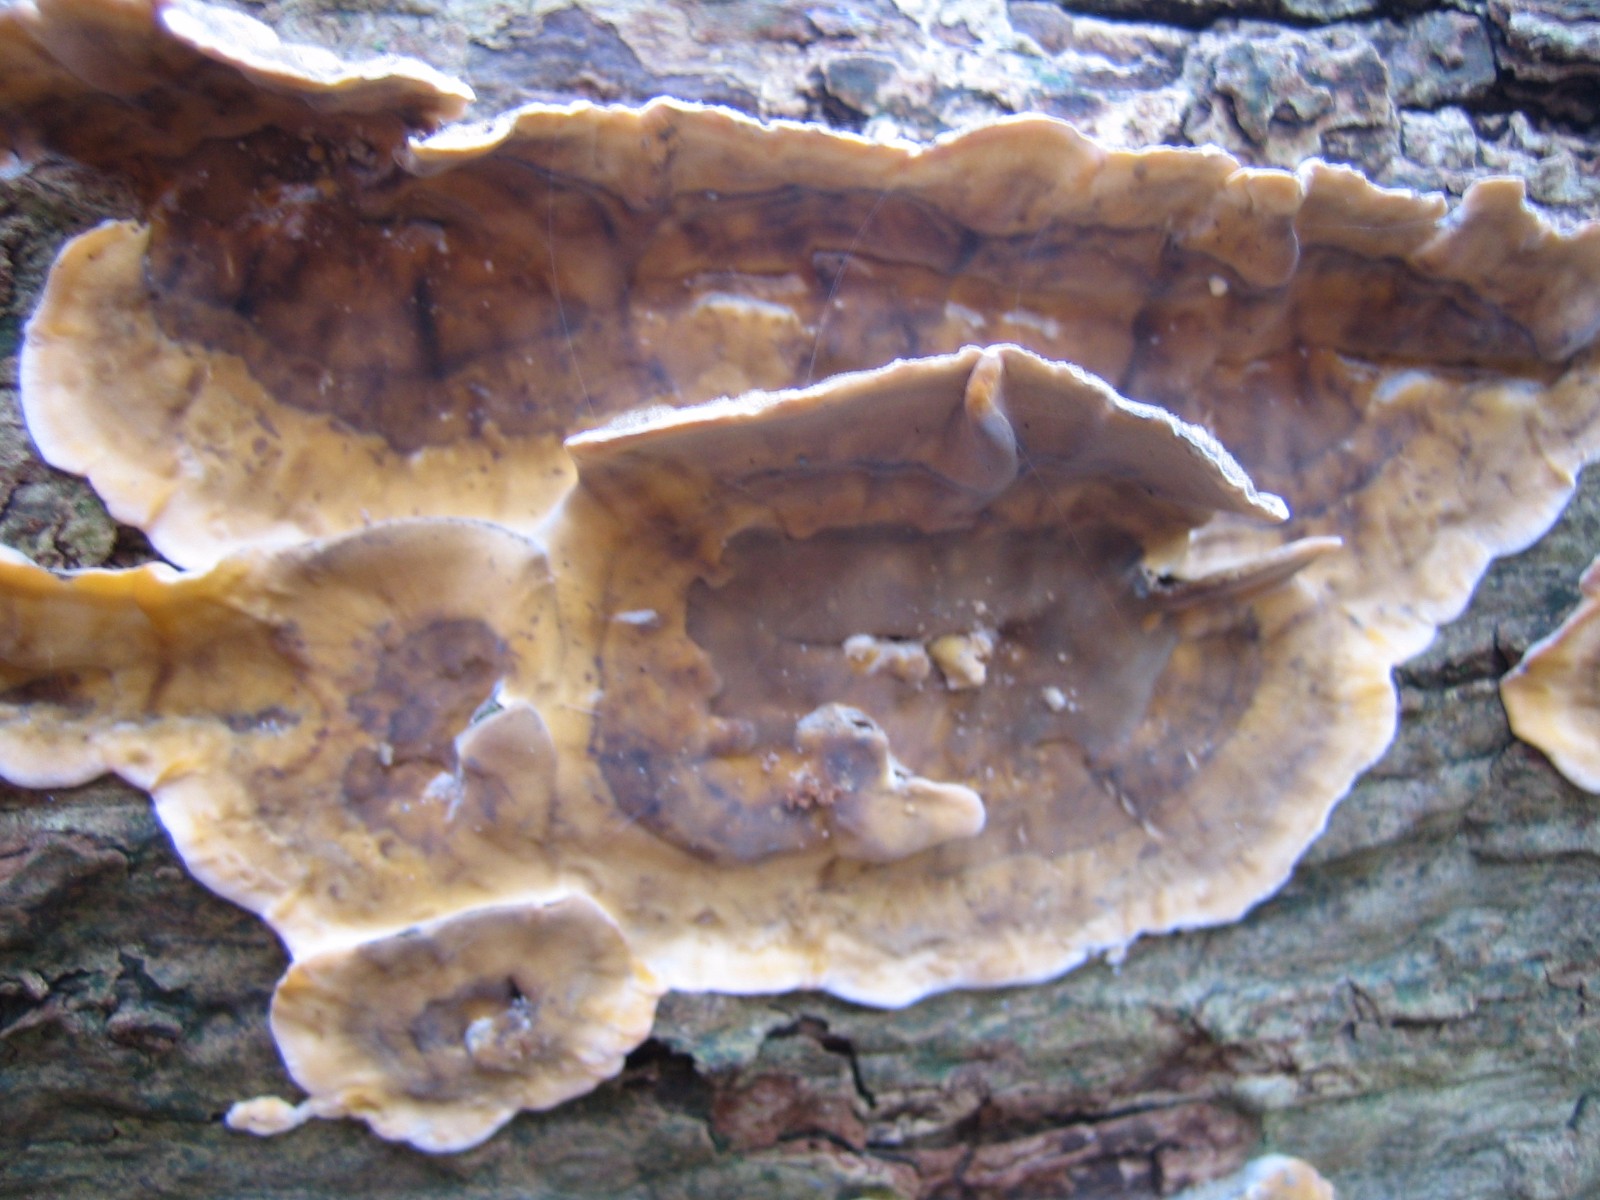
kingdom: Fungi
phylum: Basidiomycota
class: Agaricomycetes
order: Russulales
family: Stereaceae
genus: Stereum
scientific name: Stereum hirsutum
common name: håret lædersvamp
